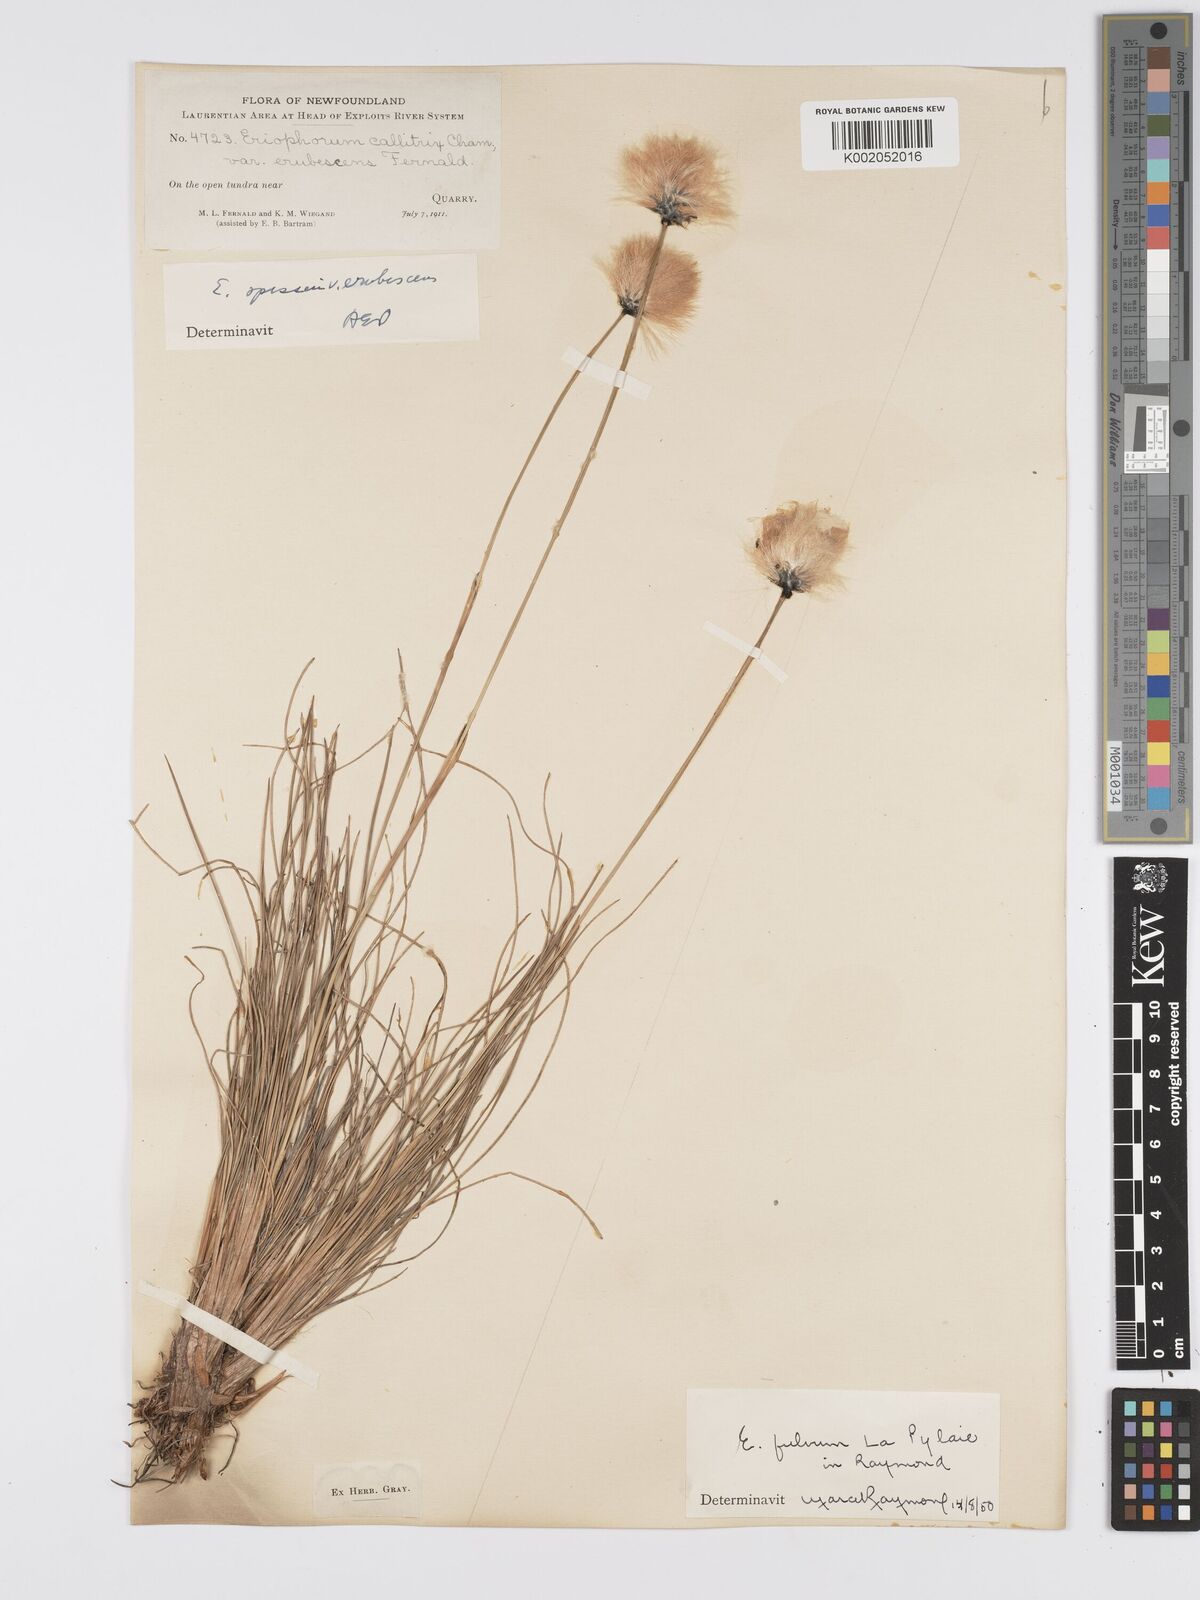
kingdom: Plantae
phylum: Tracheophyta
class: Liliopsida
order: Poales
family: Cyperaceae
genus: Eriophorum
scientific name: Eriophorum vaginatum
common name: Hare's-tail cottongrass
